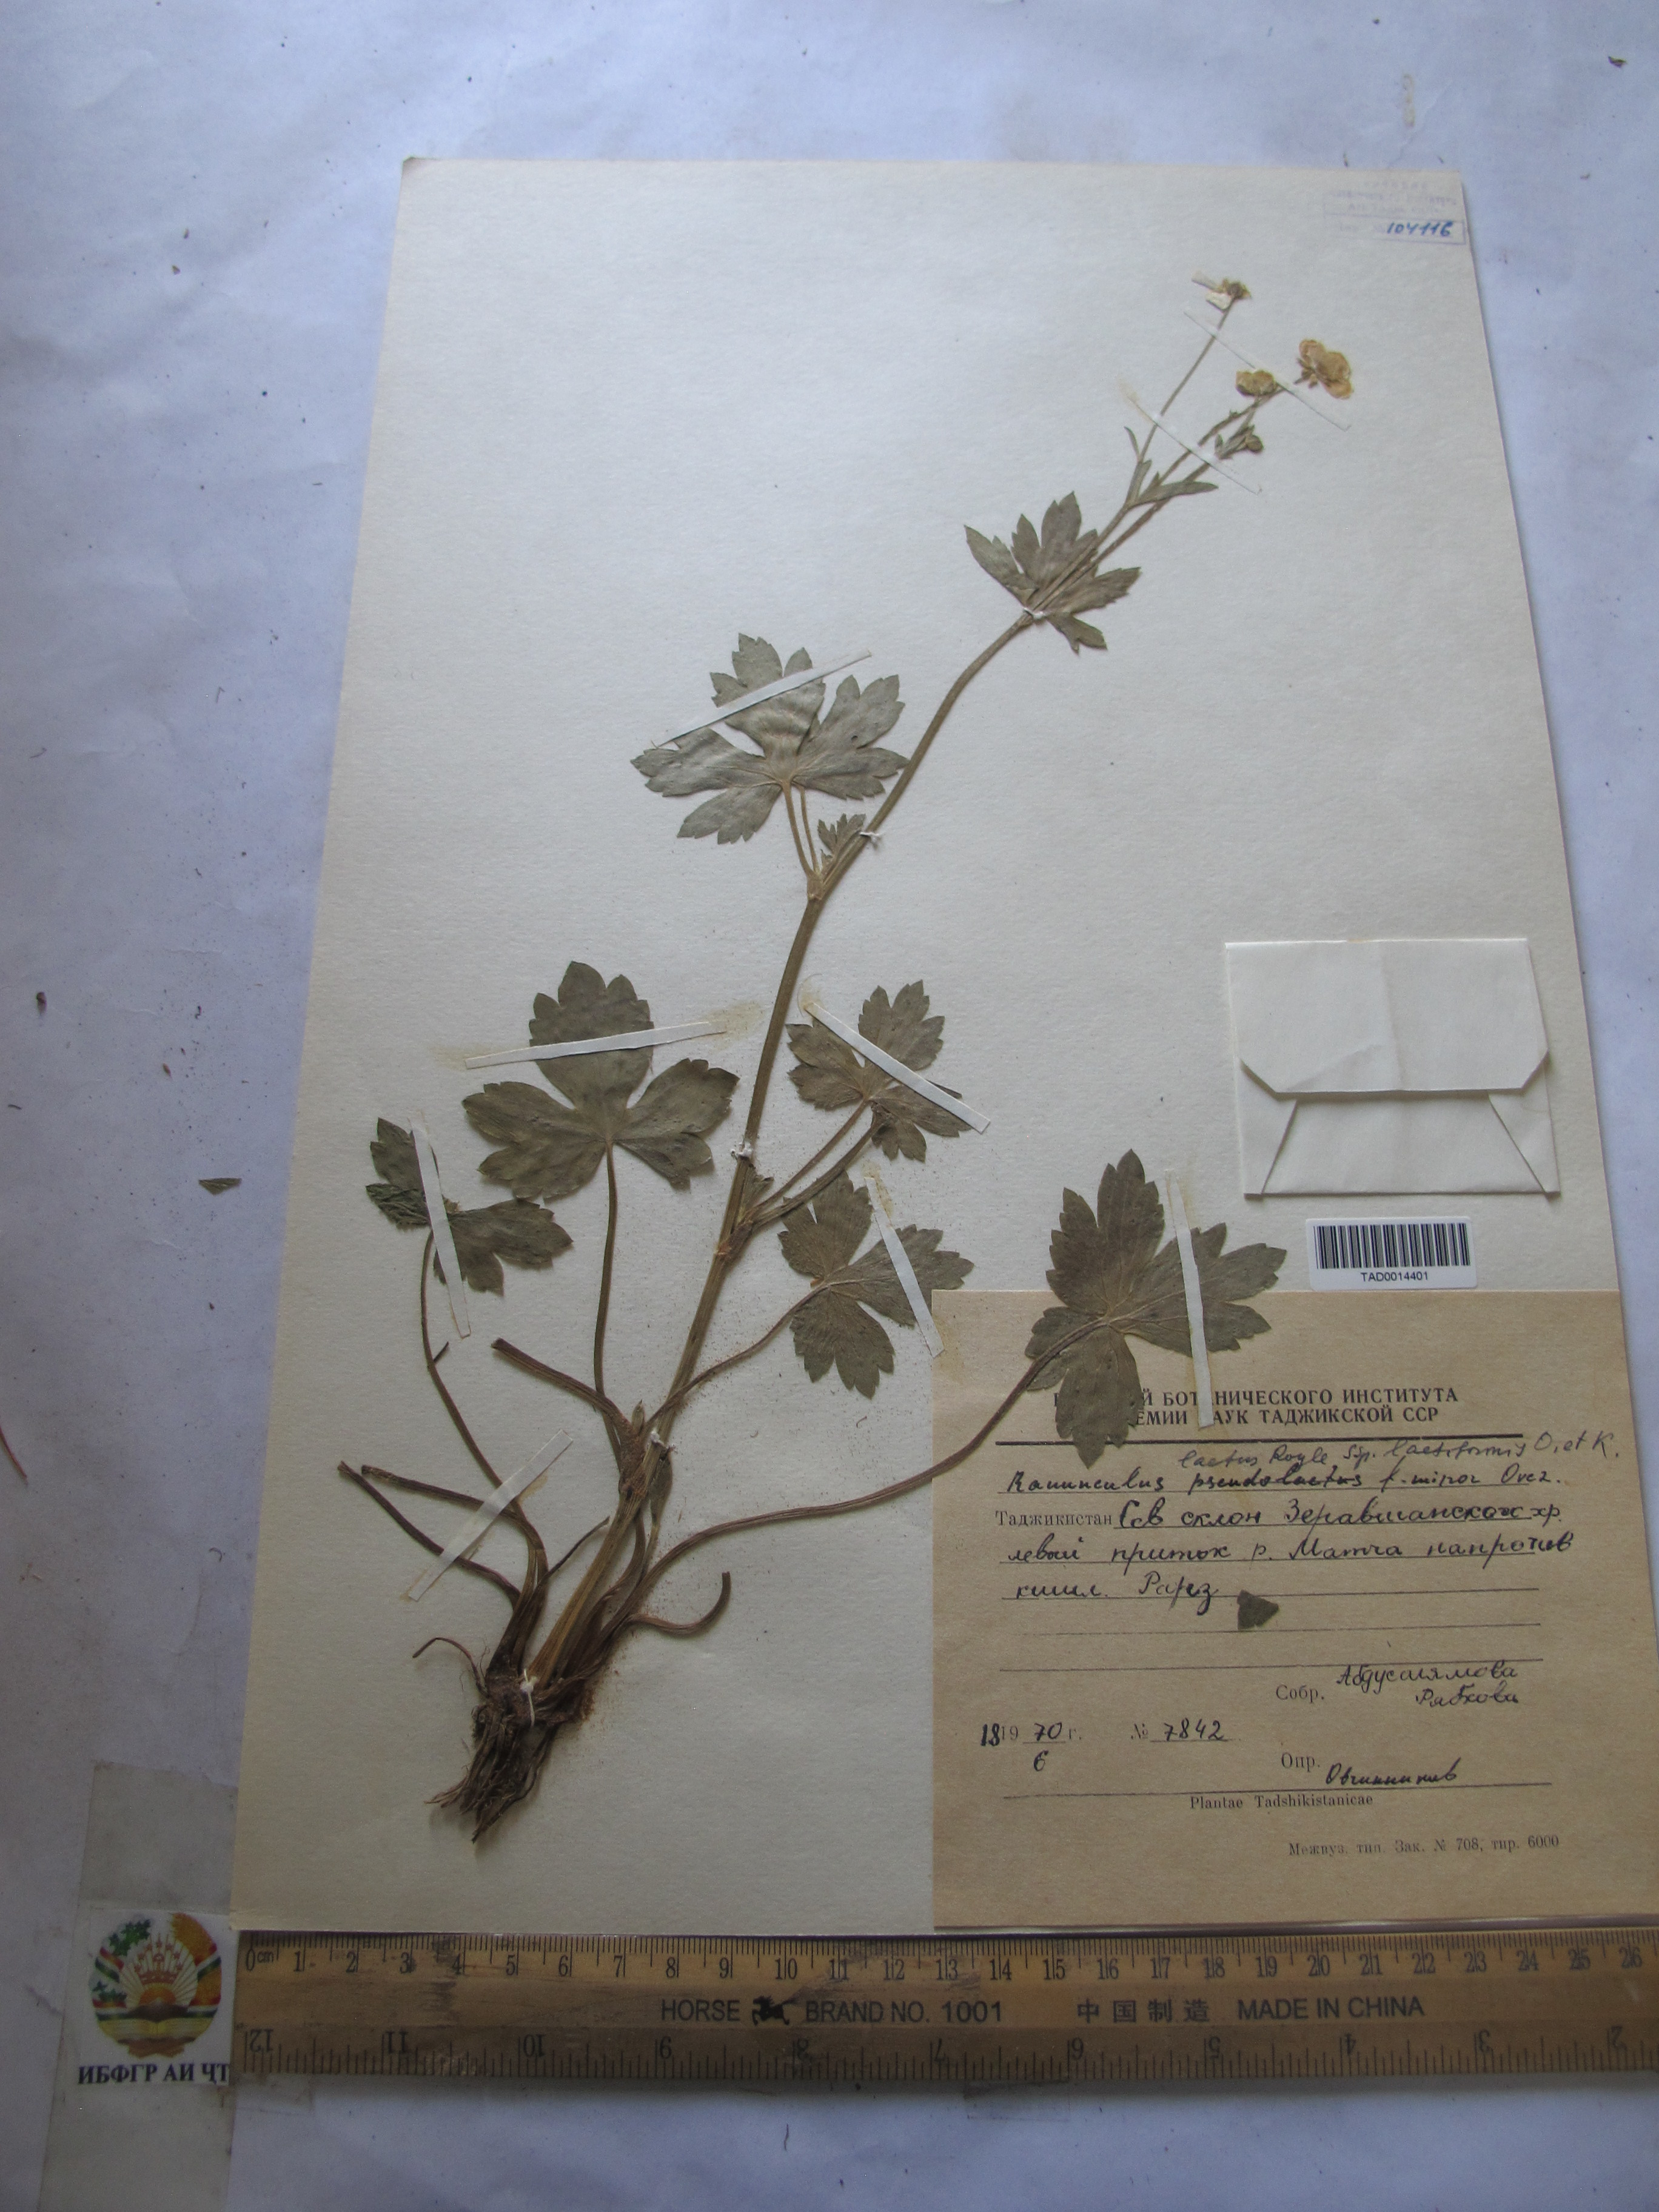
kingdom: Plantae
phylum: Tracheophyta
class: Magnoliopsida
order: Ranunculales
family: Ranunculaceae
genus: Ranunculus
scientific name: Ranunculus distans
